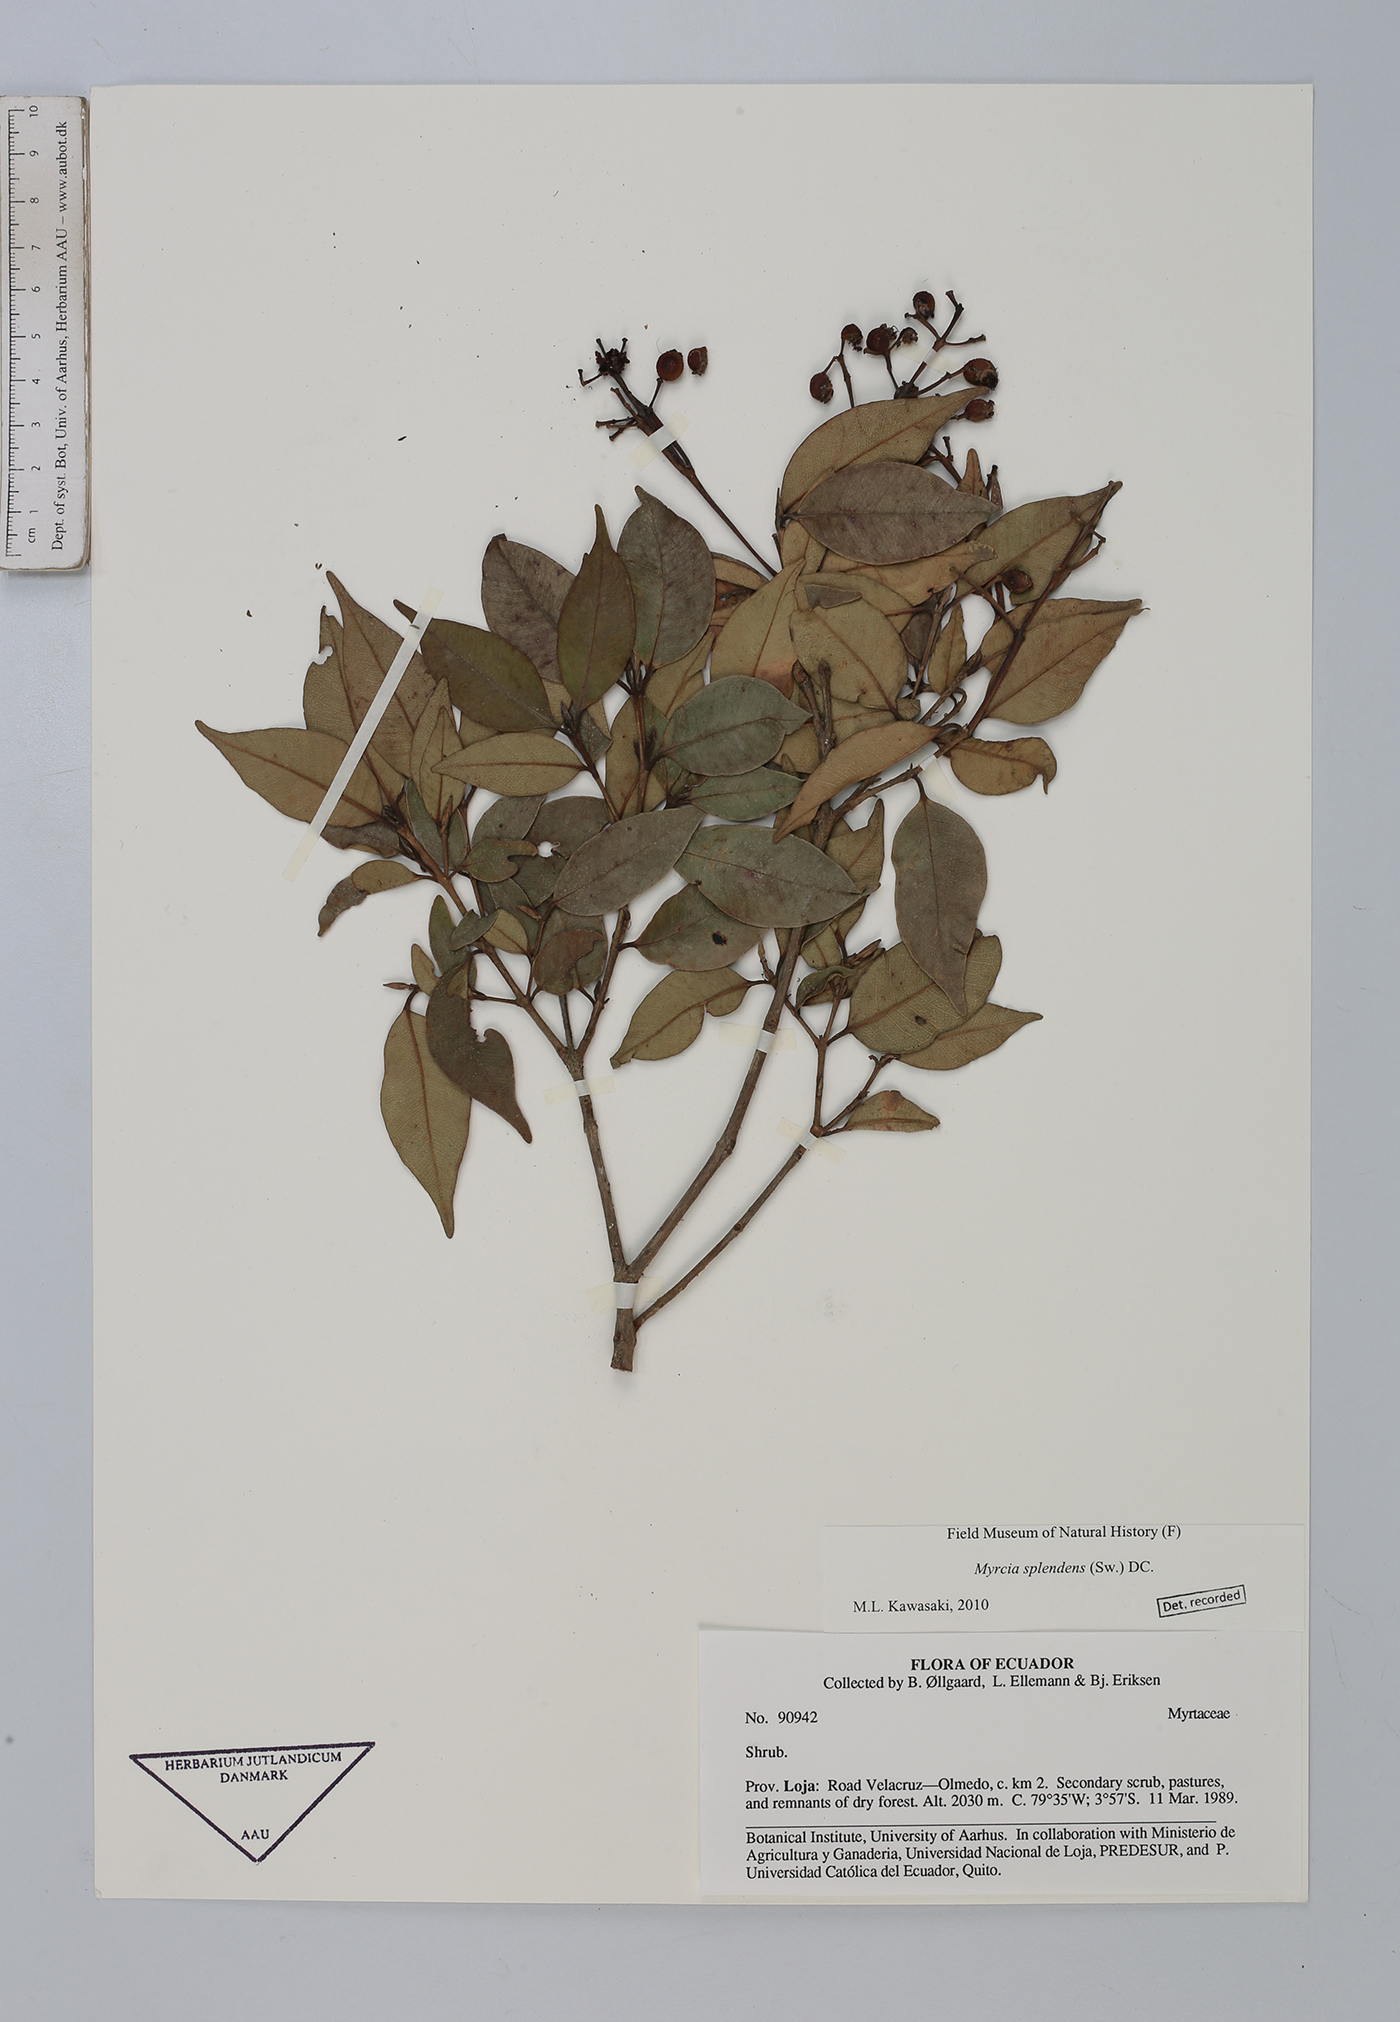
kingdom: Plantae
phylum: Tracheophyta
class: Magnoliopsida
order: Myrtales
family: Myrtaceae
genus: Myrcia
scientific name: Myrcia splendens
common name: Surinam cherry
